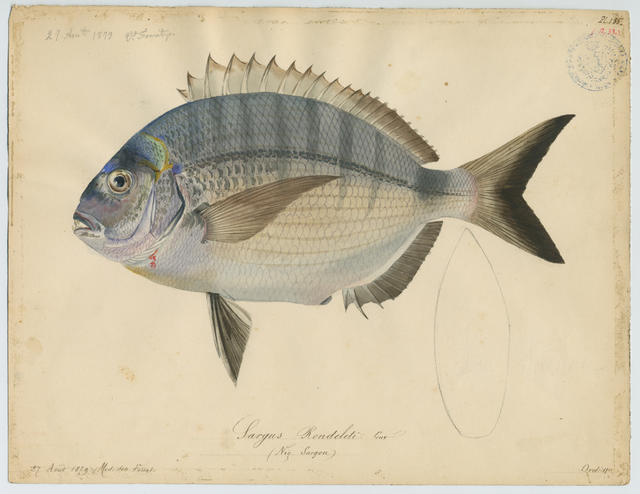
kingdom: Animalia
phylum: Chordata
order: Perciformes
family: Sparidae
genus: Diplodus
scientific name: Diplodus sargus
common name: White seabream
